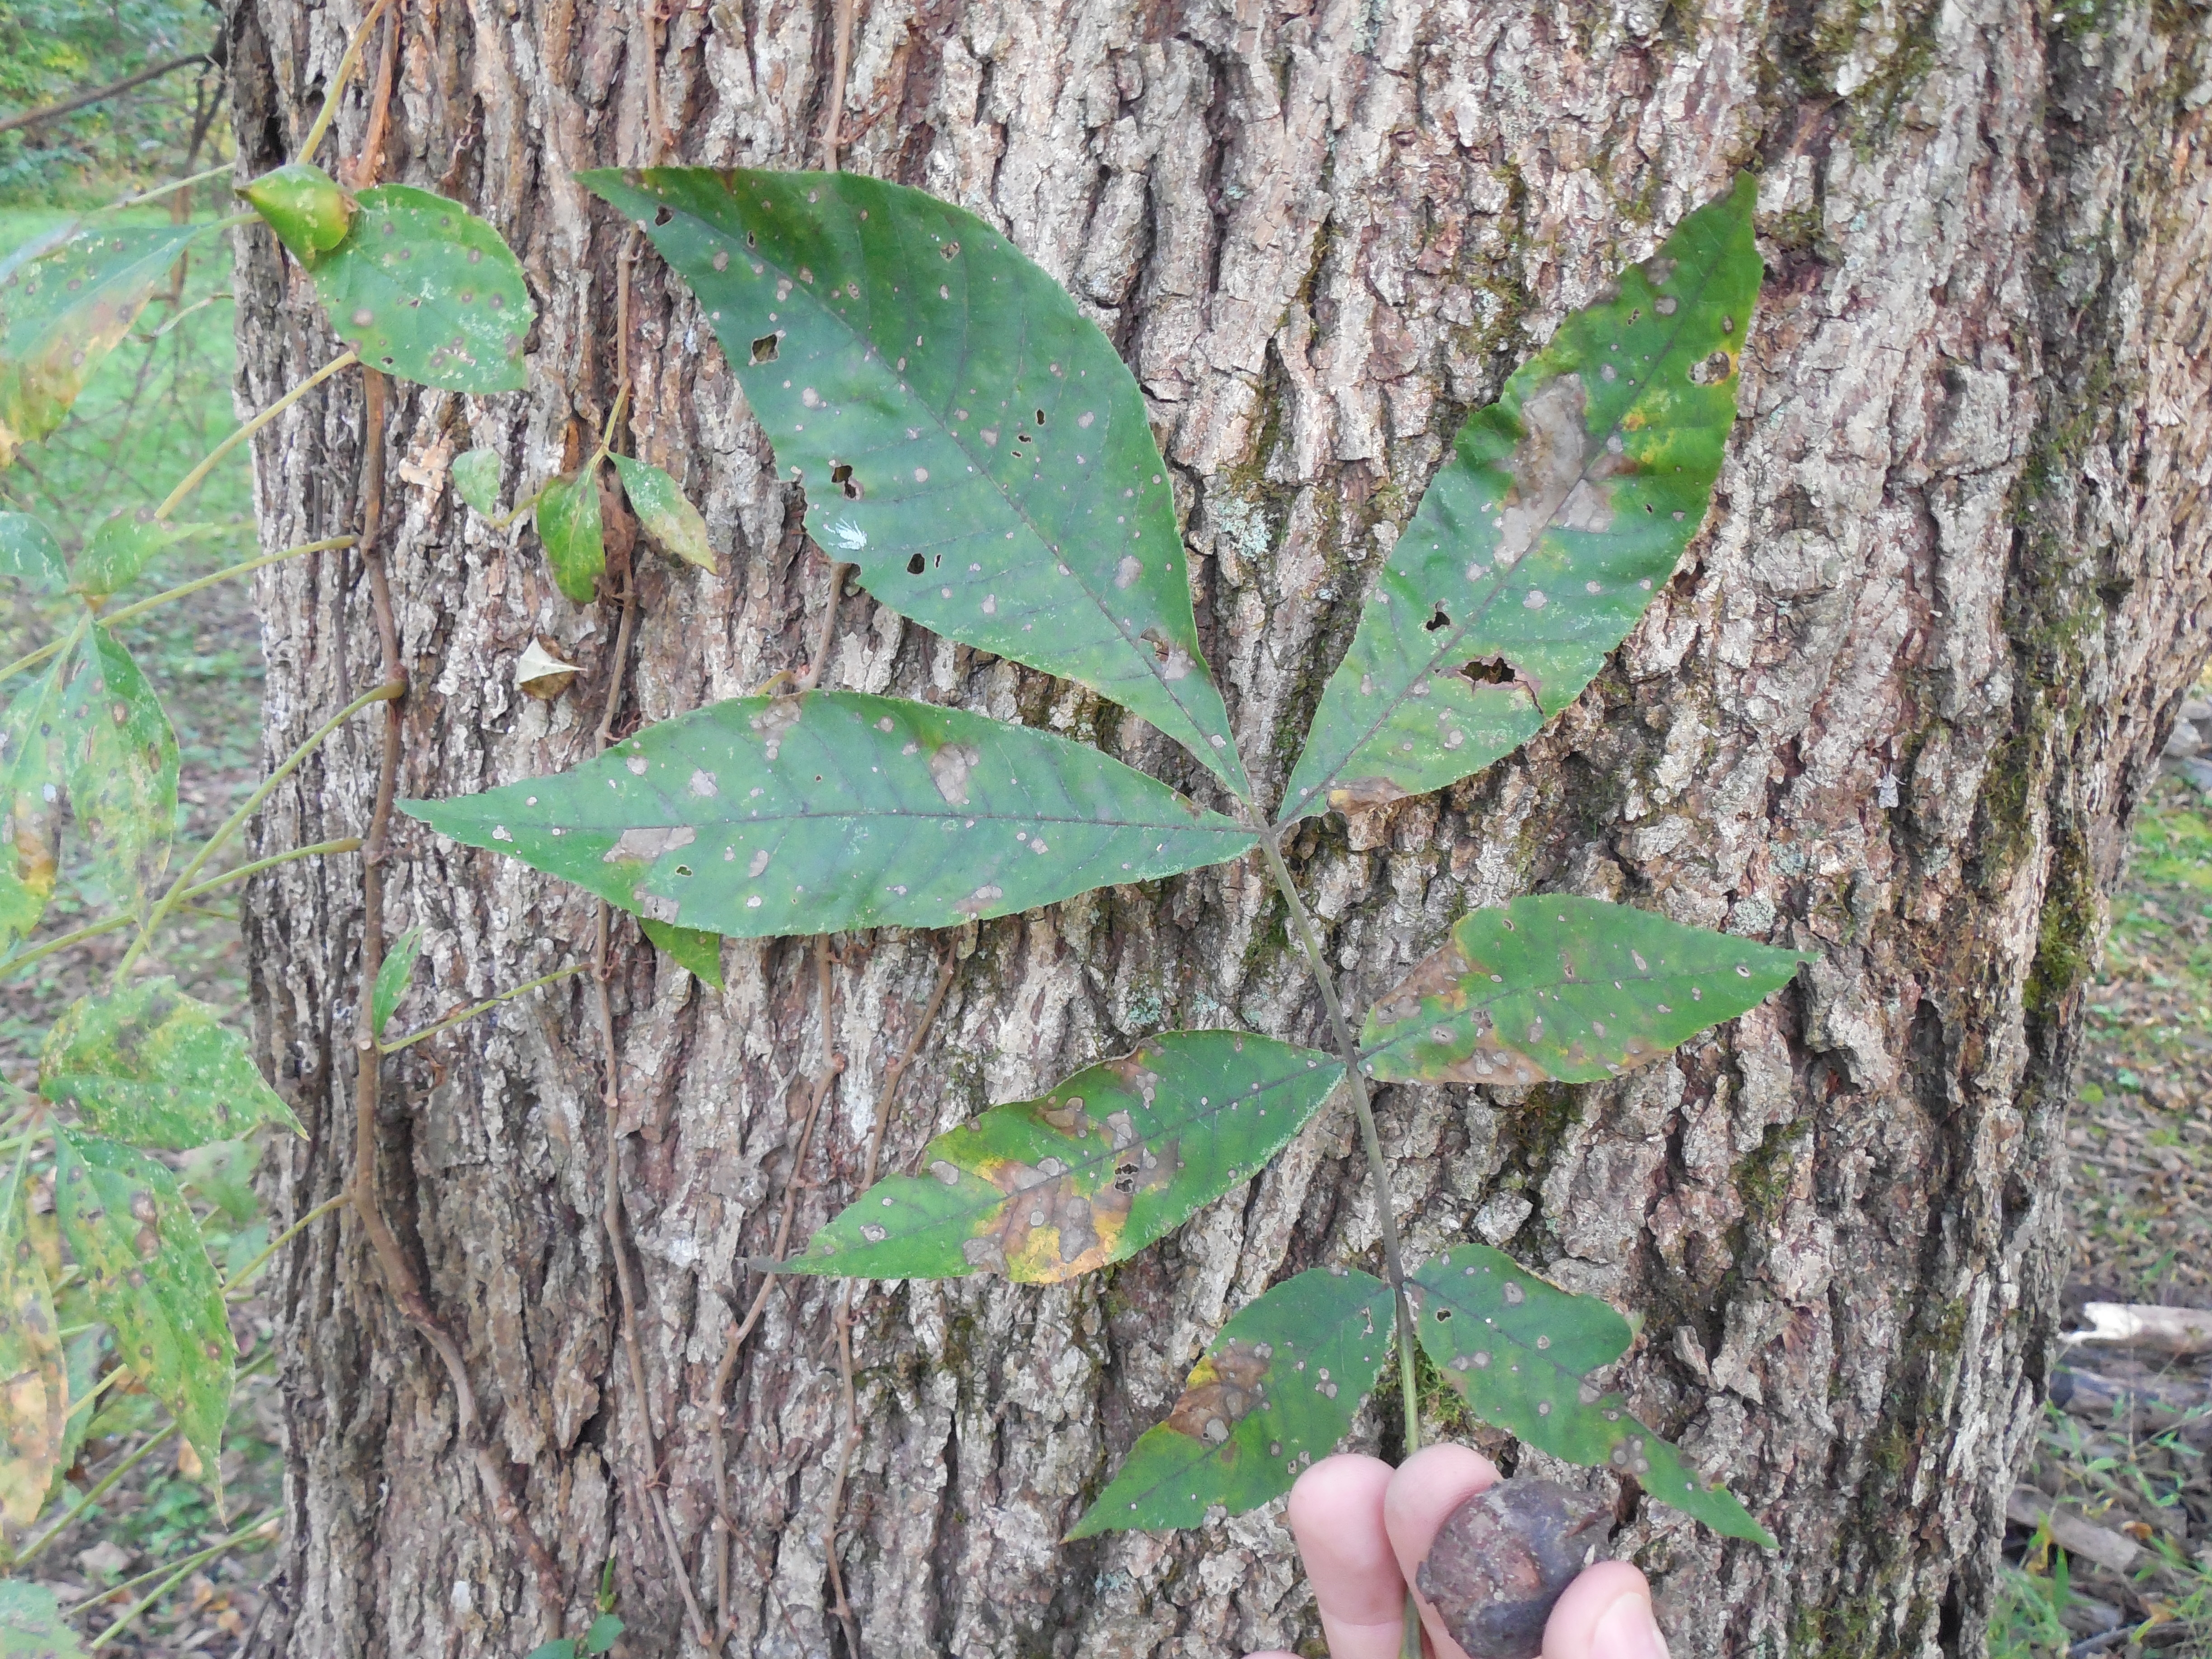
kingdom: Plantae
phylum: Tracheophyta
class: Magnoliopsida
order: Fagales
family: Juglandaceae
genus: Carya
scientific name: Carya cordiformis
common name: Bitternut hickory
